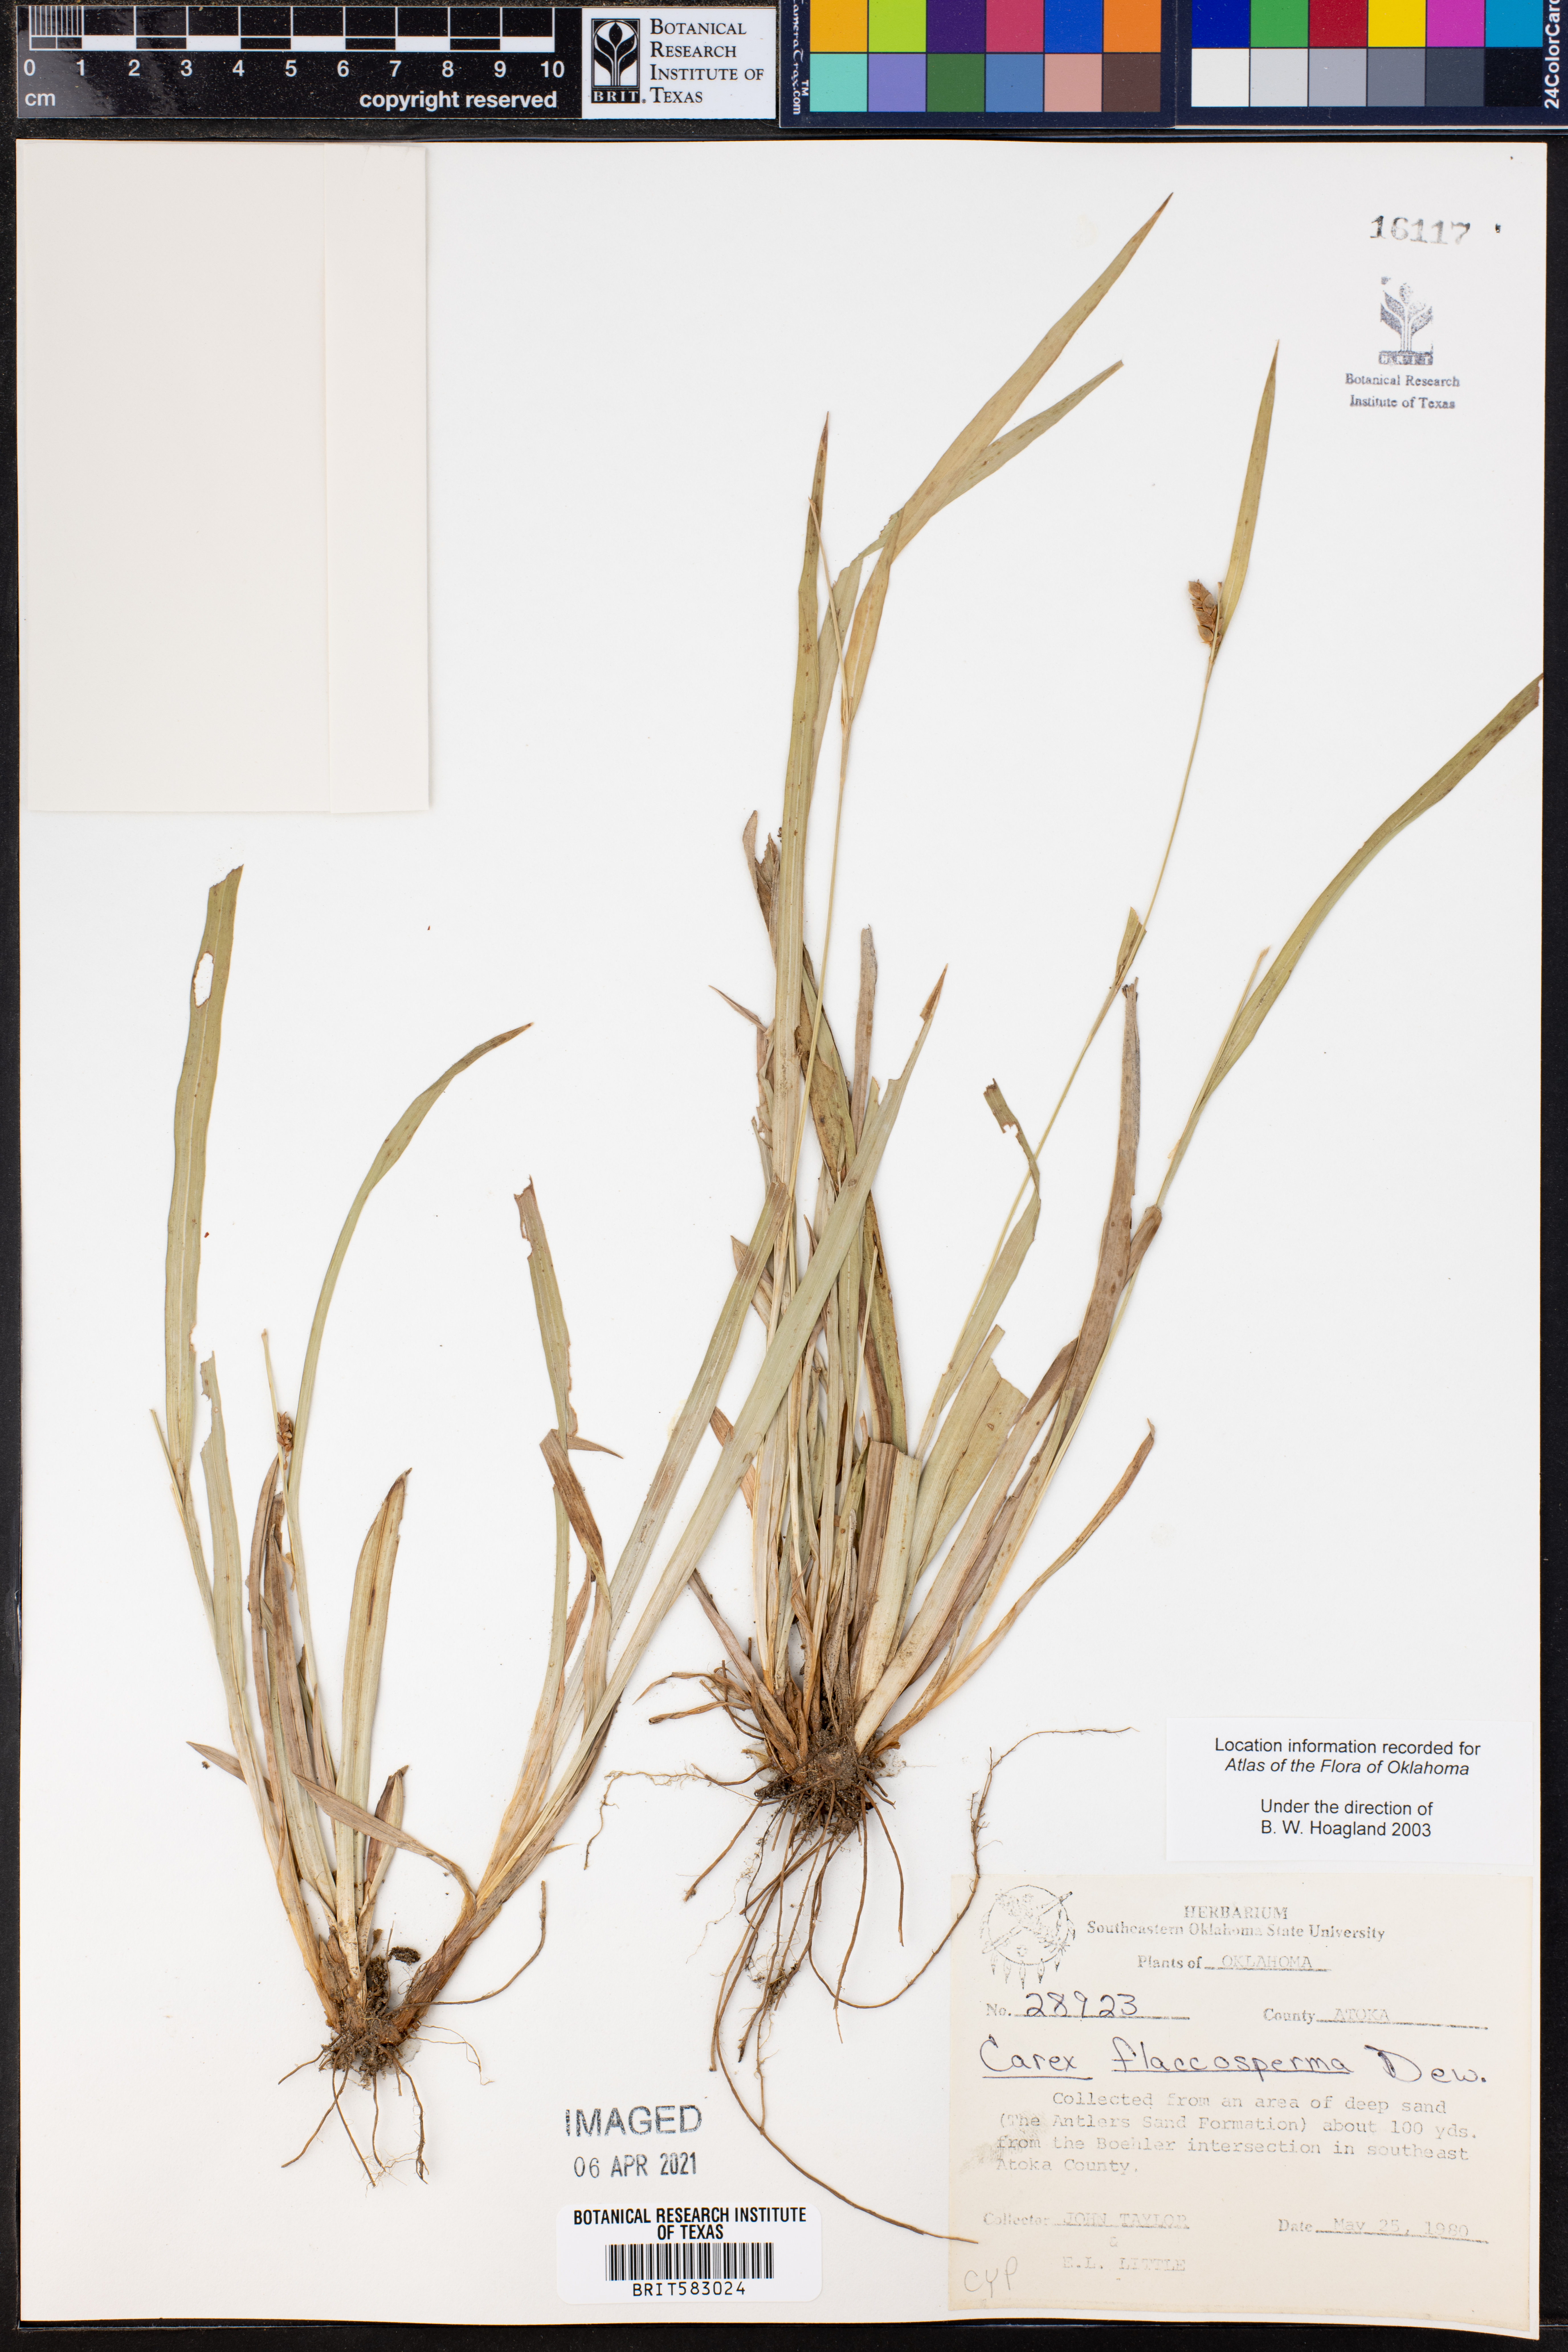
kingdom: Plantae
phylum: Tracheophyta
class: Liliopsida
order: Poales
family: Cyperaceae
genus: Carex
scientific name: Carex flaccosperma
